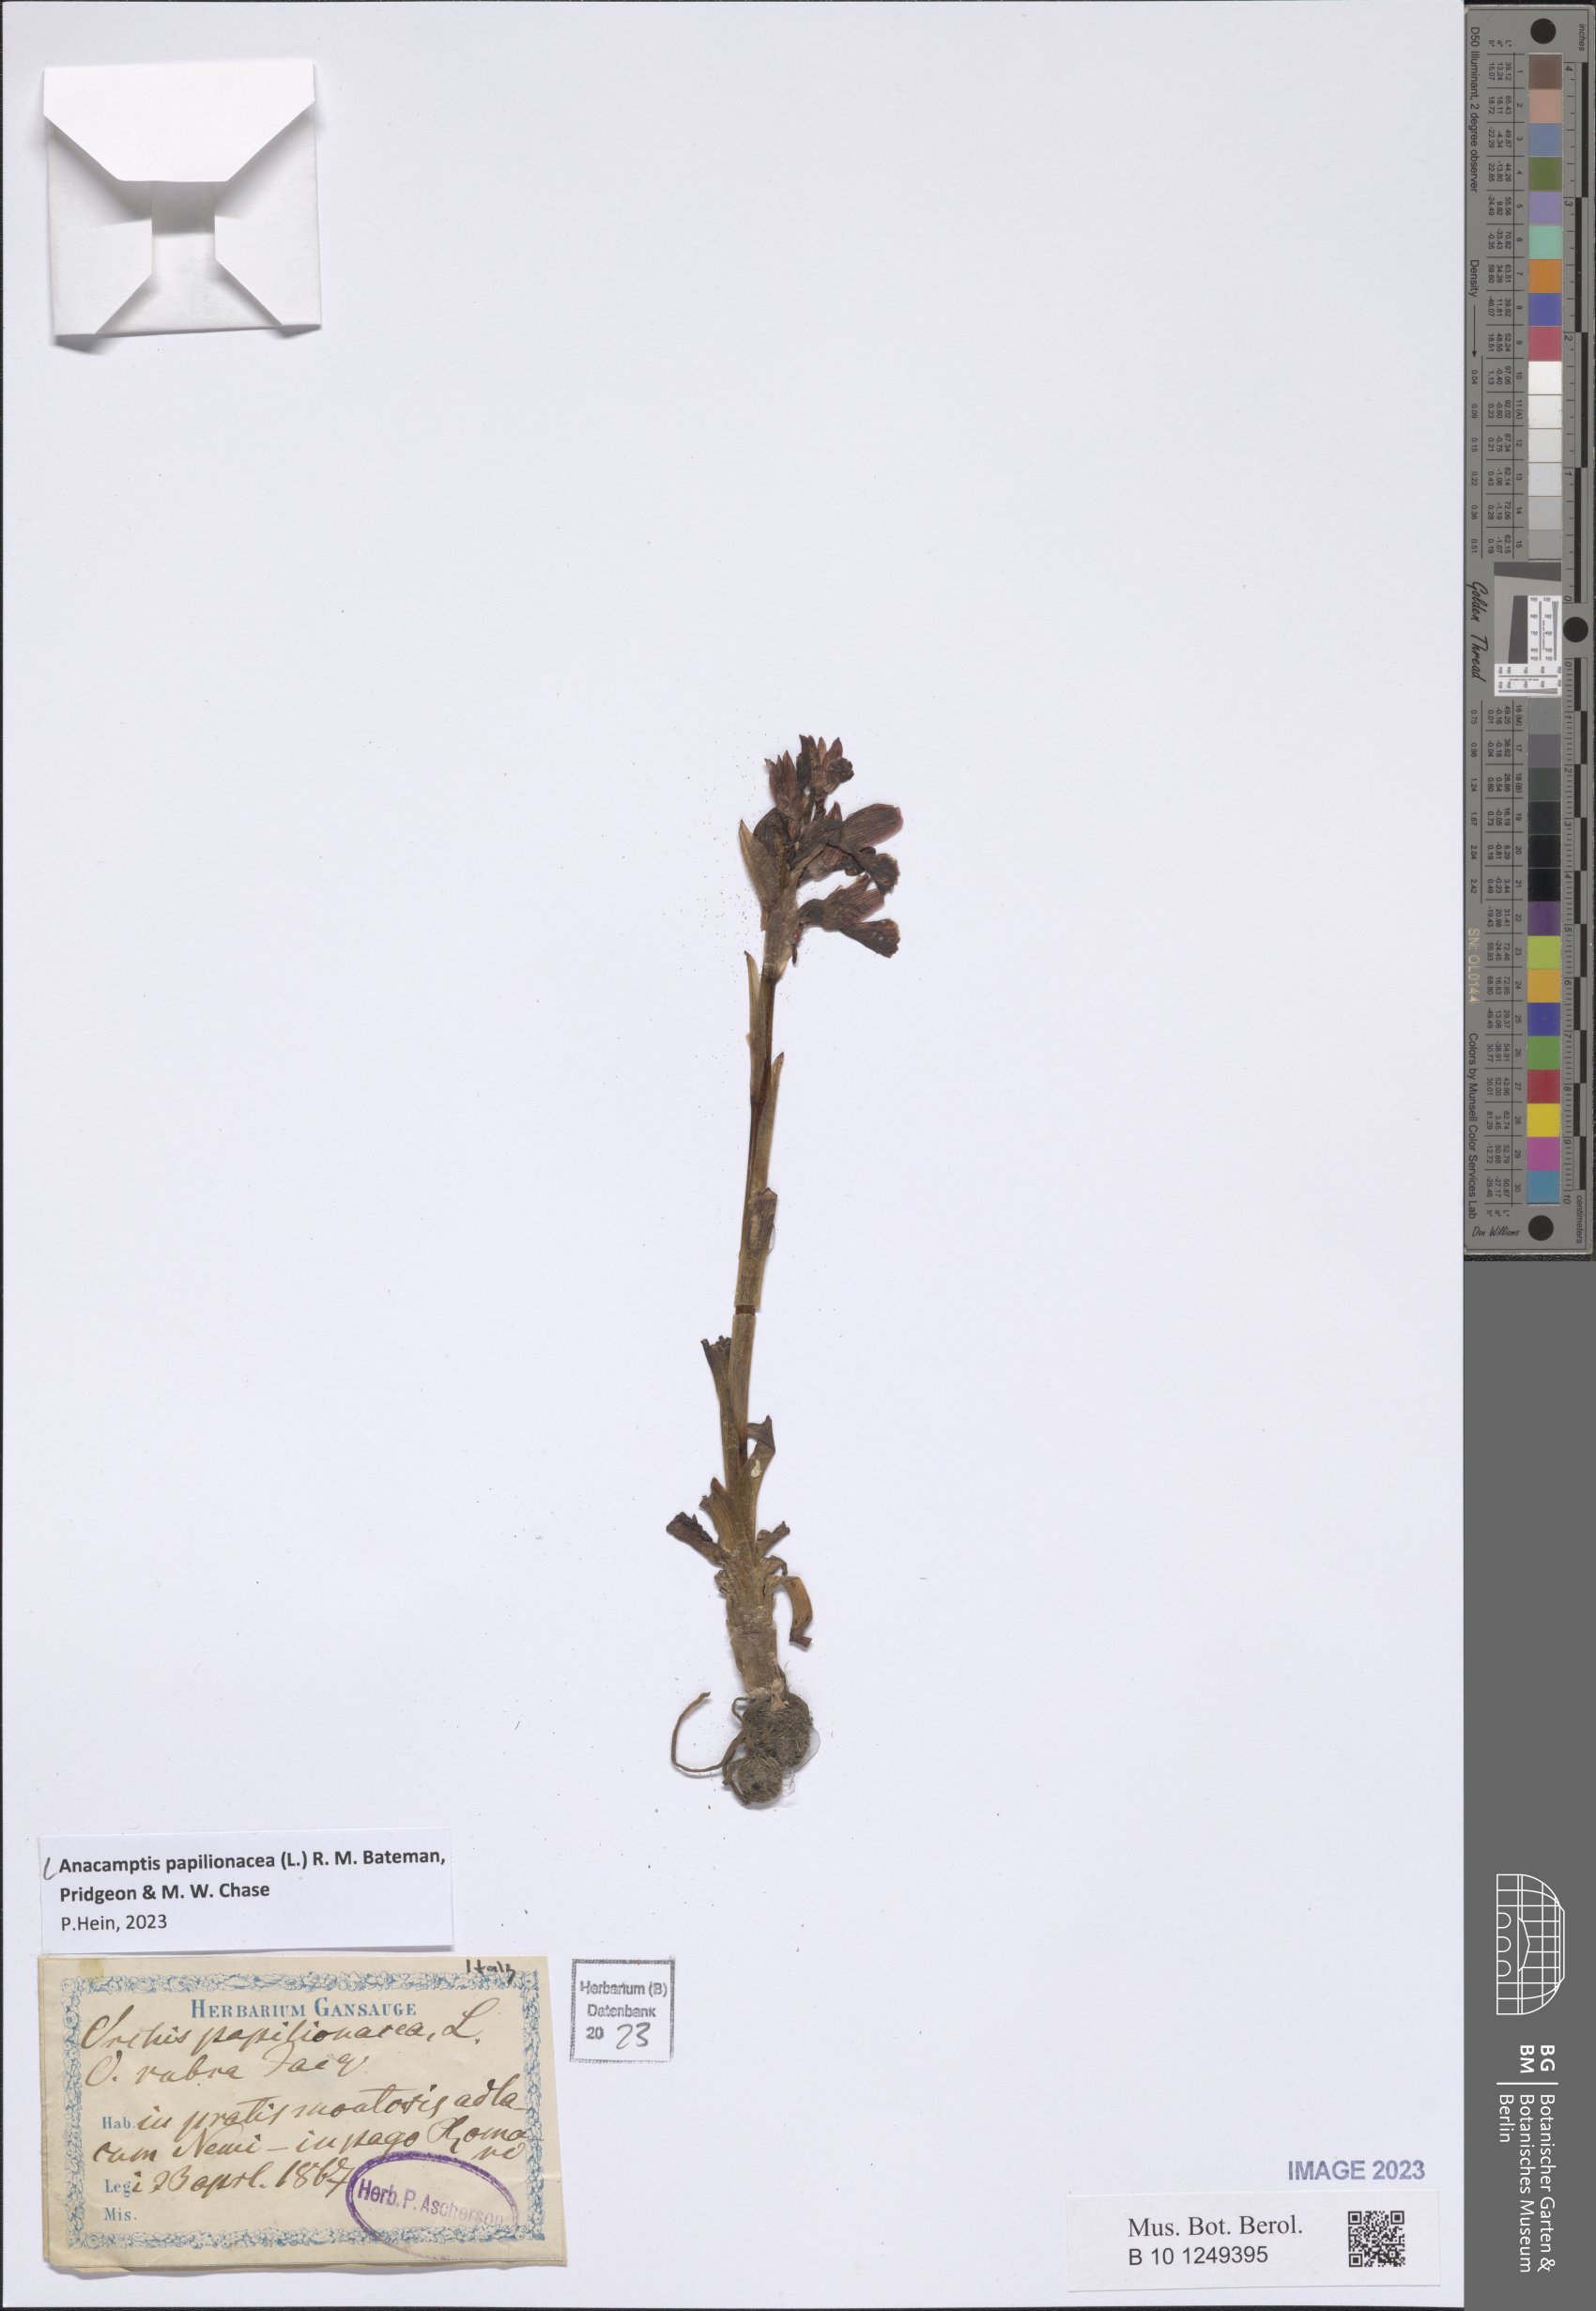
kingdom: Plantae
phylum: Tracheophyta
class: Liliopsida
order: Asparagales
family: Orchidaceae
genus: Anacamptis
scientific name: Anacamptis papilionacea
